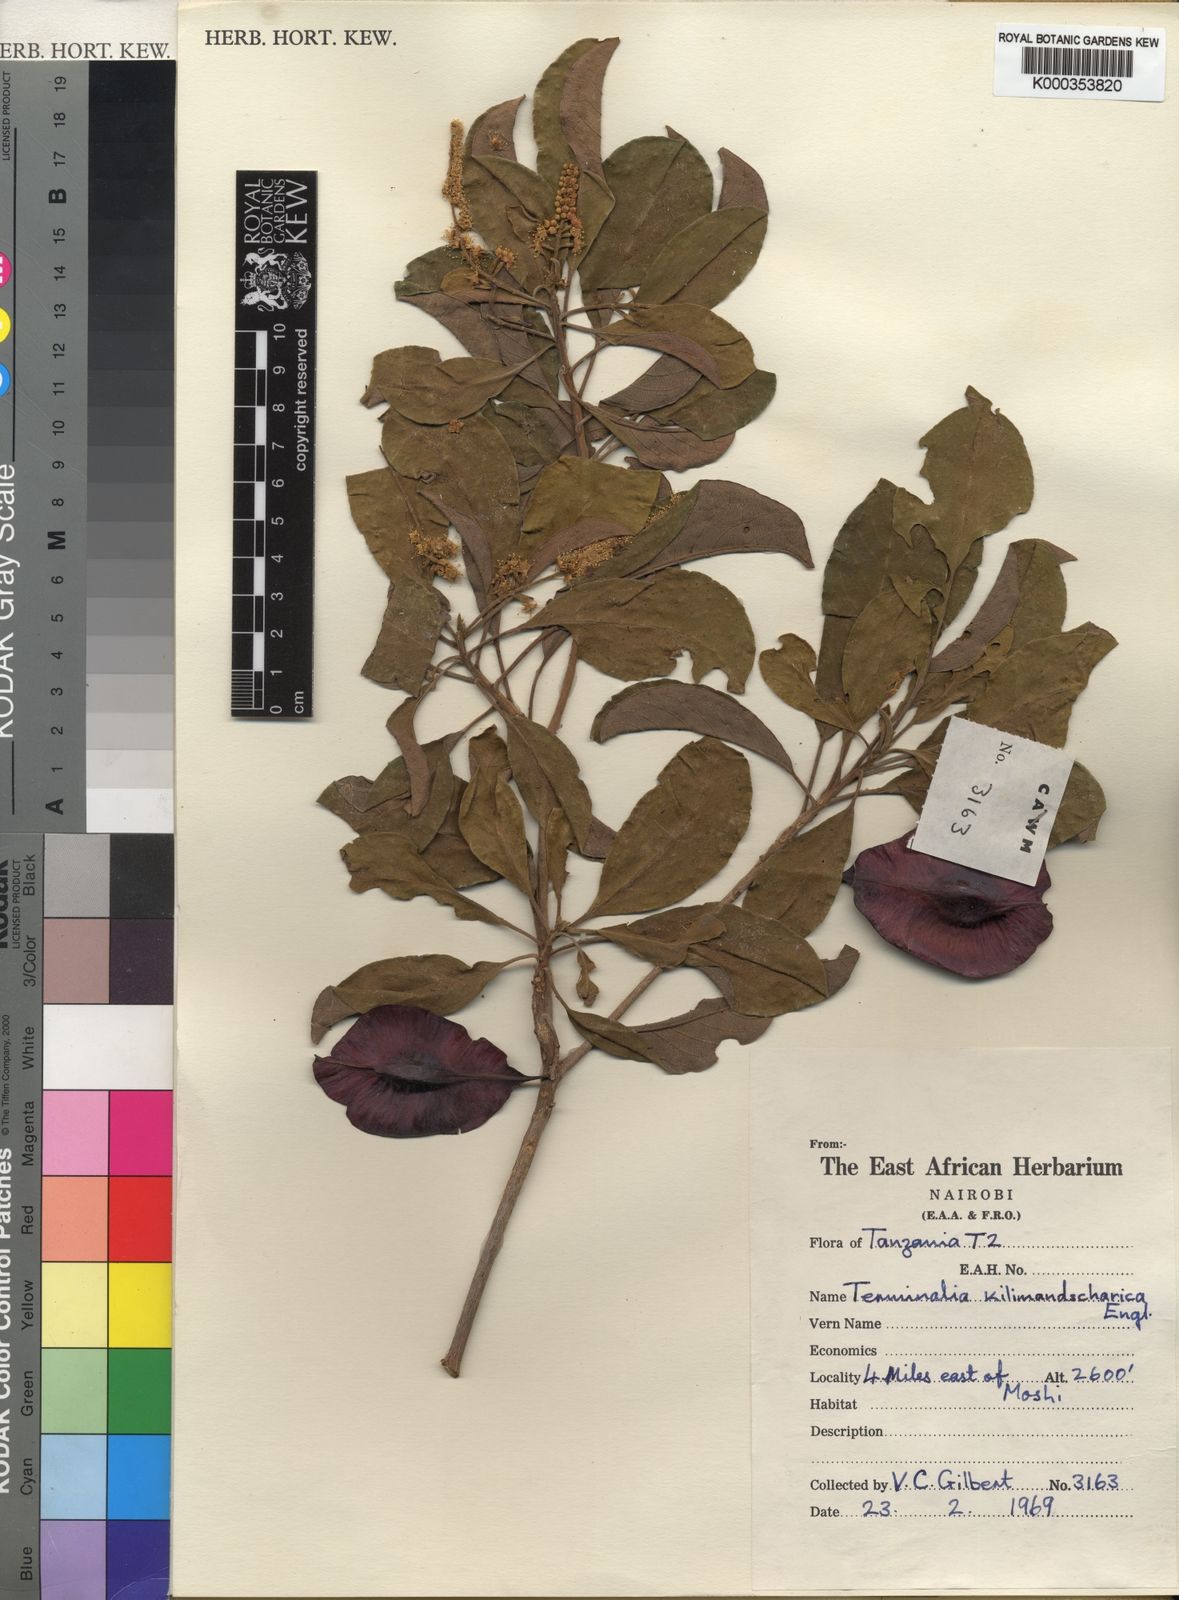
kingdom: Plantae
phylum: Tracheophyta
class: Magnoliopsida
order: Myrtales
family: Combretaceae
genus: Terminalia
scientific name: Terminalia kilimandscharica
